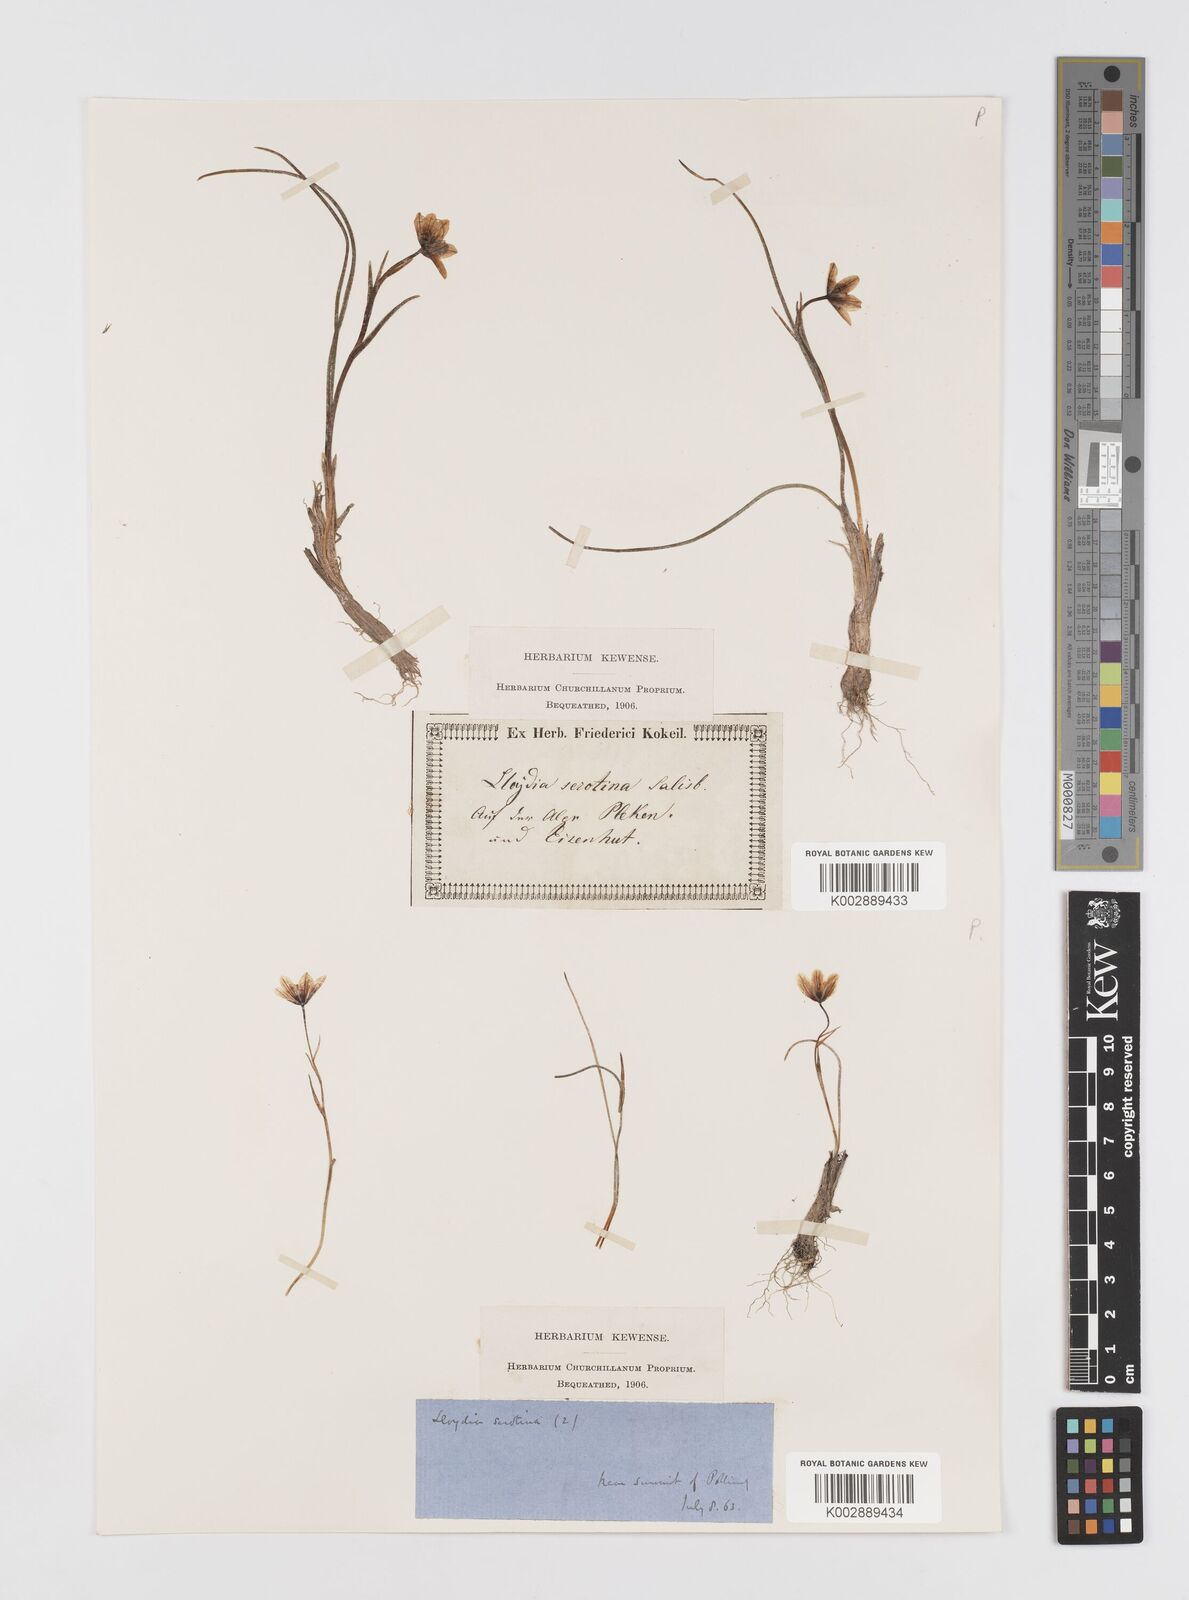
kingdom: Plantae
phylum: Tracheophyta
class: Liliopsida
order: Liliales
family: Liliaceae
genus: Gagea
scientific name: Gagea
